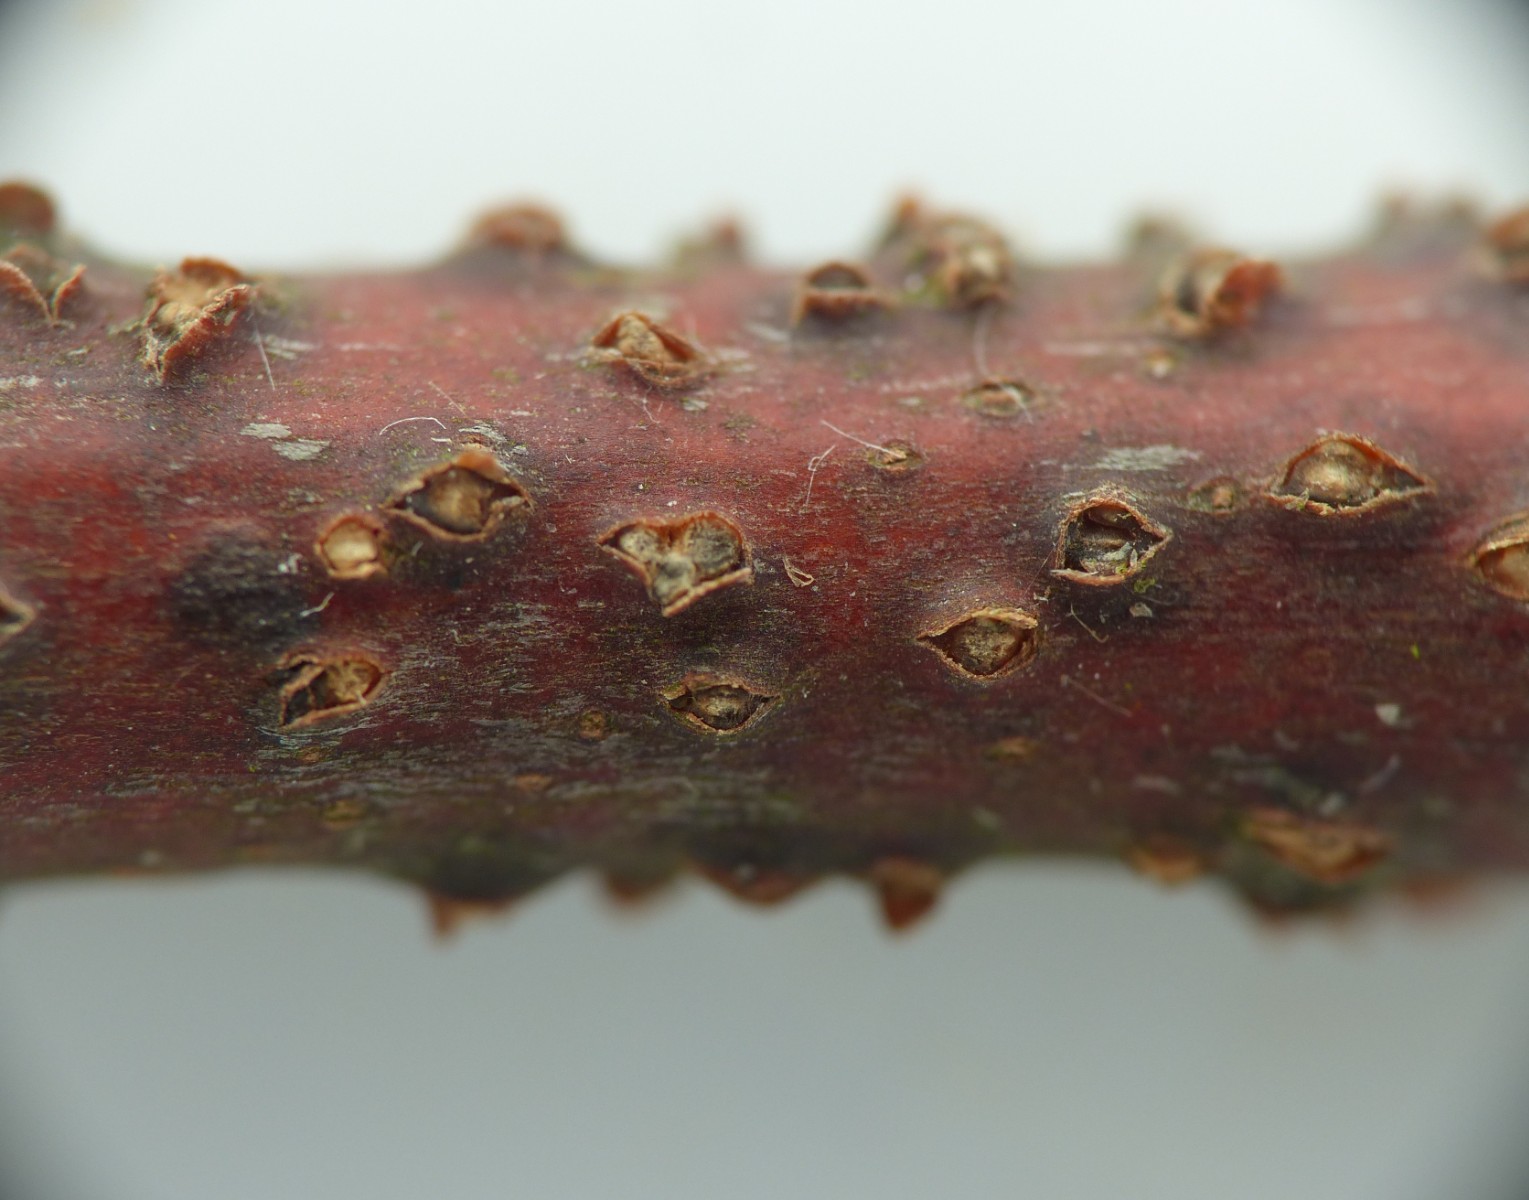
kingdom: Fungi
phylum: Ascomycota
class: Sordariomycetes
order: Diaporthales
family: Gnomoniaceae
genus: Cytodiplospora
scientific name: Cytodiplospora aceris
